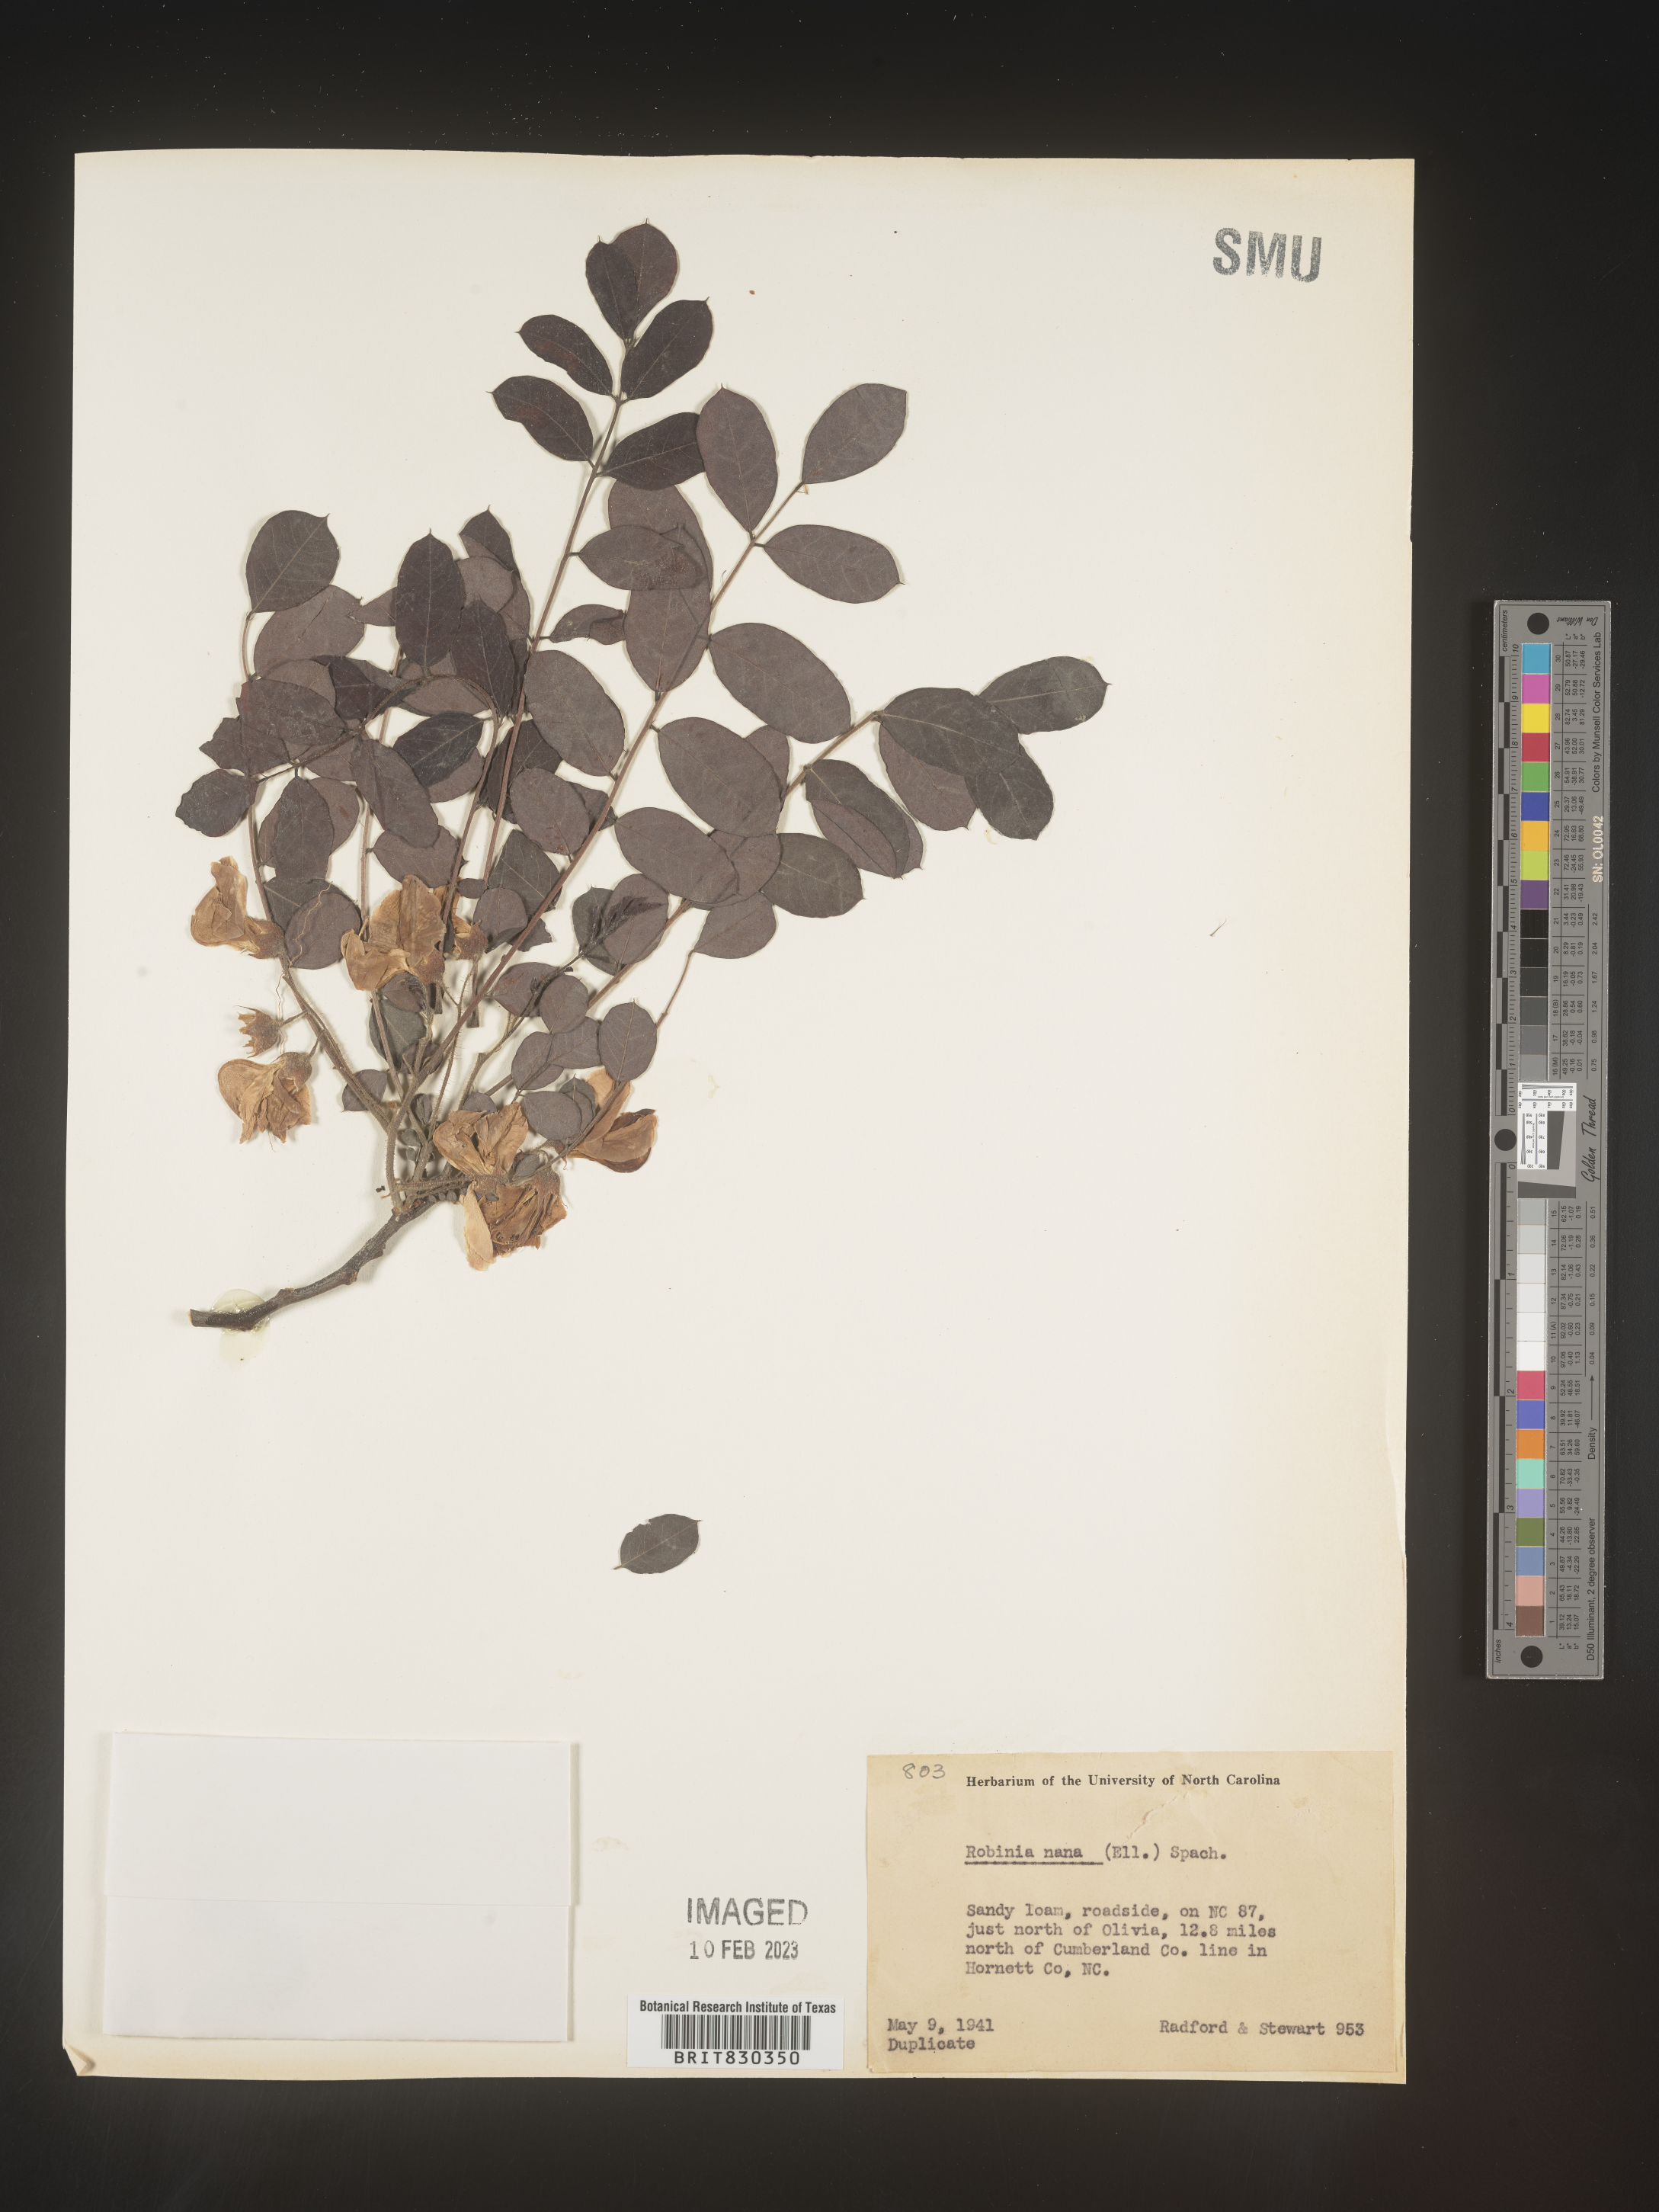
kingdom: Plantae
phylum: Tracheophyta
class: Magnoliopsida
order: Fabales
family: Fabaceae
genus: Robinia
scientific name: Robinia
